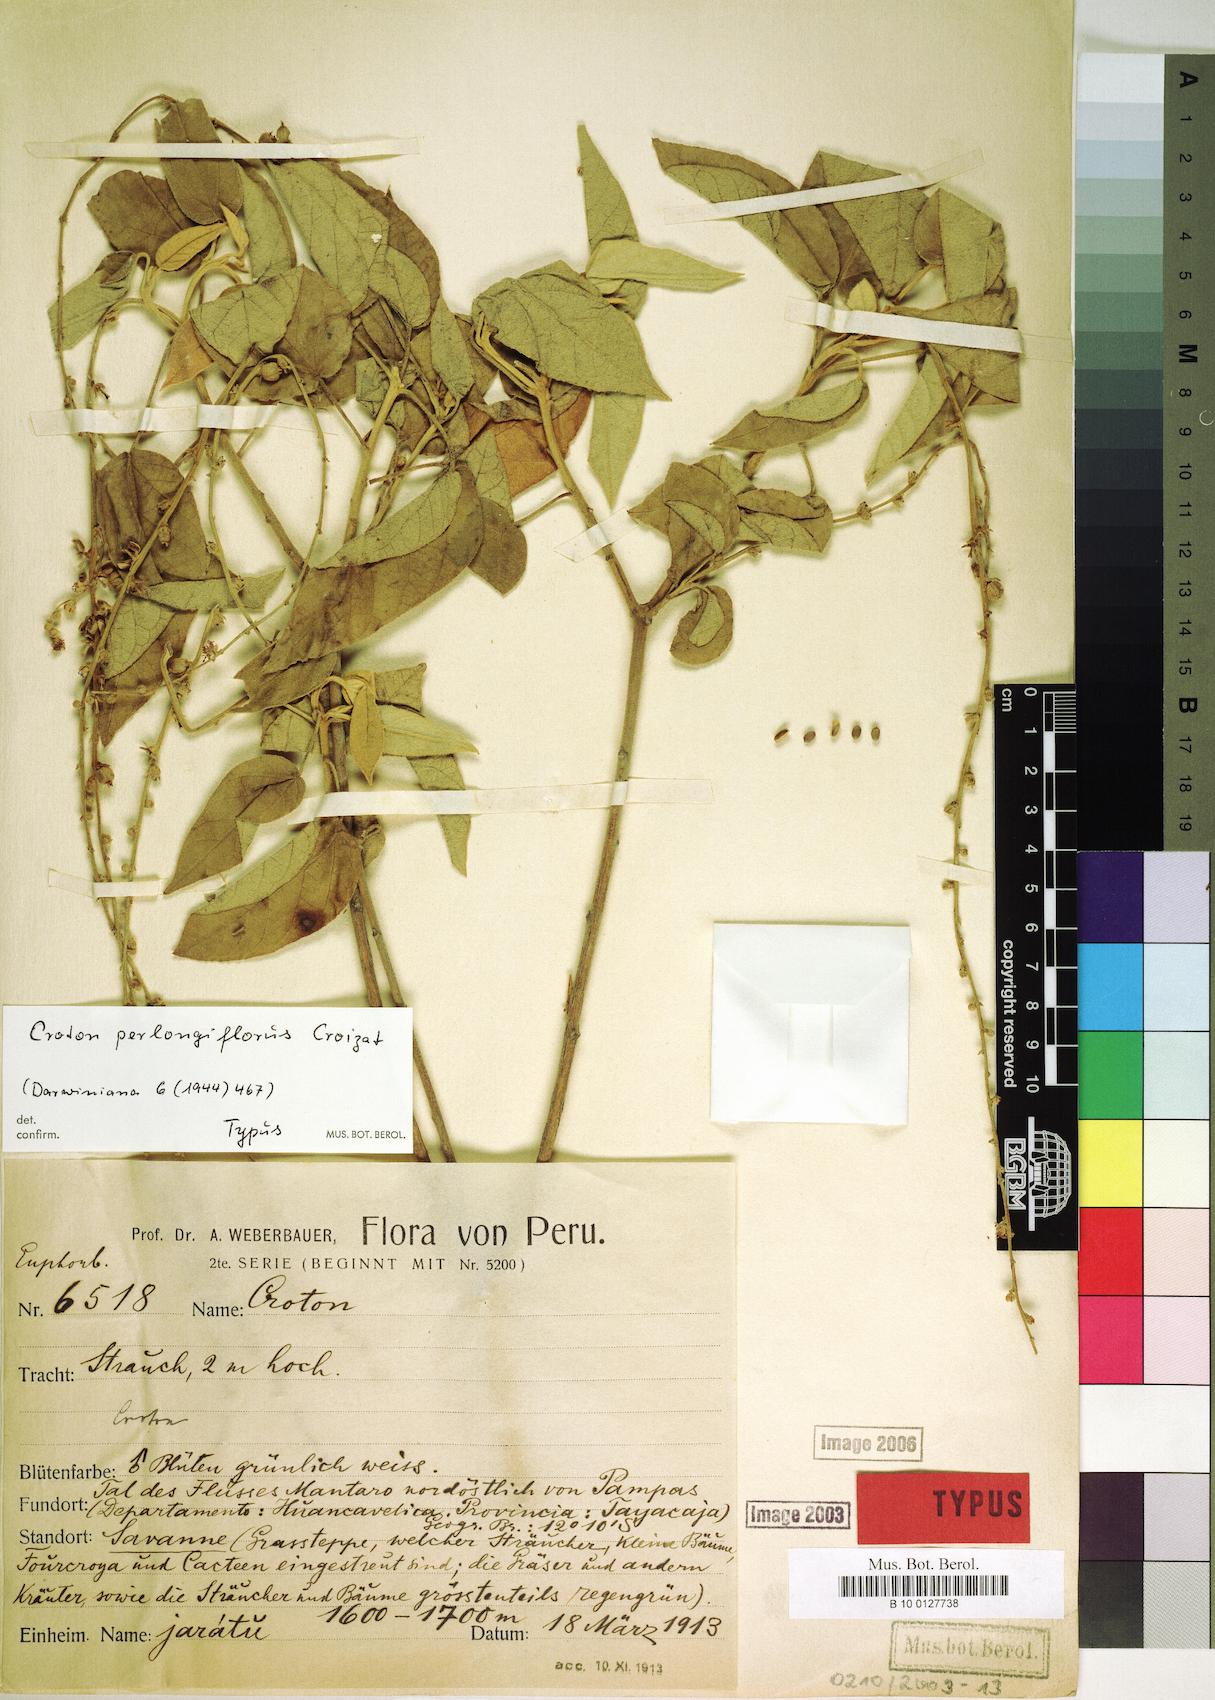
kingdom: Plantae
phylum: Tracheophyta
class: Magnoliopsida
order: Malpighiales
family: Euphorbiaceae
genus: Croton
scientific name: Croton perlongiflorus
